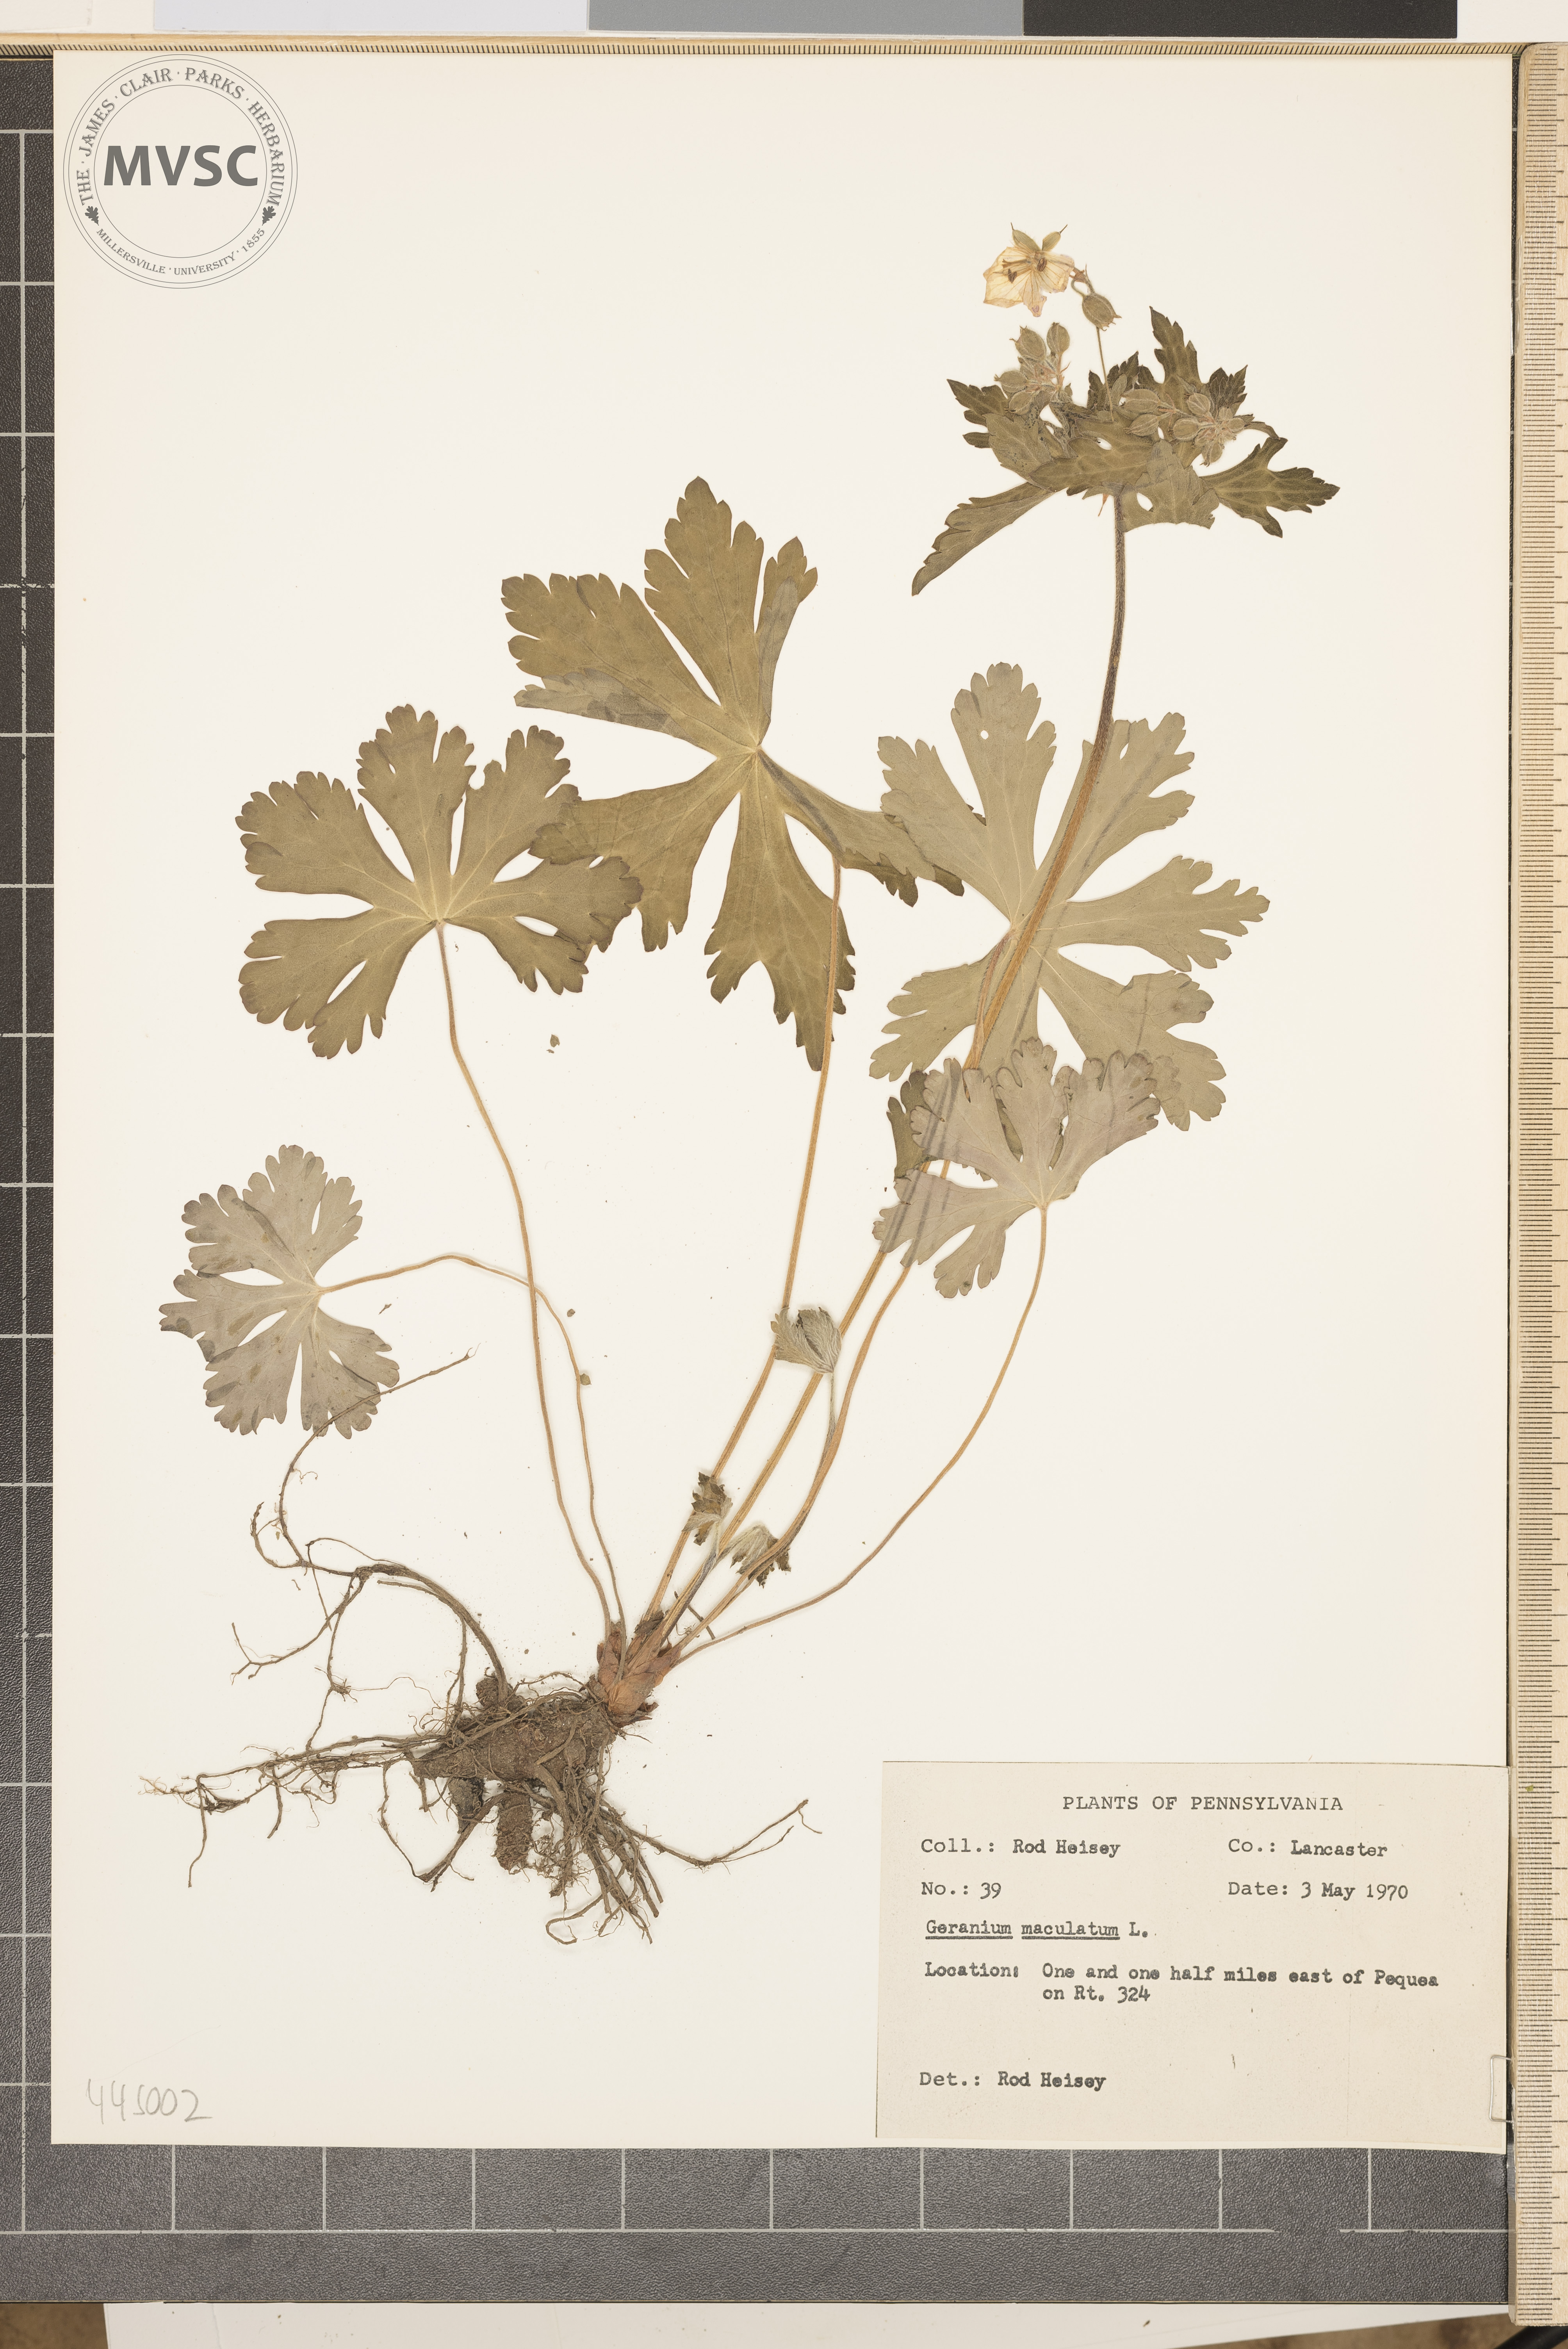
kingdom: Plantae
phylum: Tracheophyta
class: Magnoliopsida
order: Geraniales
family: Geraniaceae
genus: Geranium
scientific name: Geranium maculatum
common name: Spotted geranium
